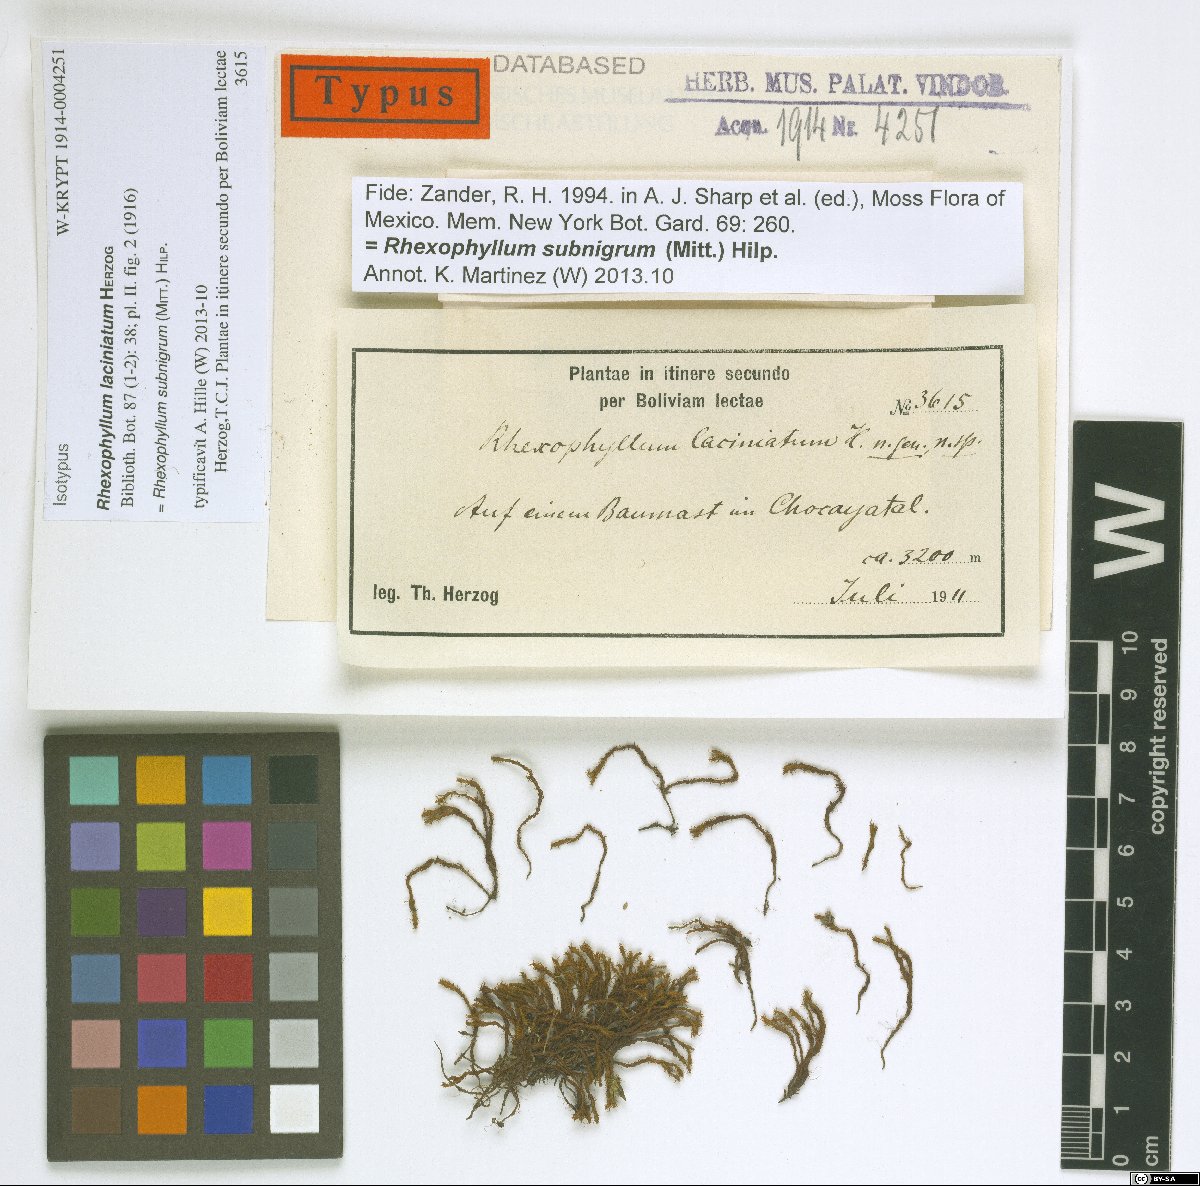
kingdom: Plantae
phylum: Bryophyta
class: Bryopsida
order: Pottiales
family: Pottiaceae
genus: Rhexophyllum
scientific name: Rhexophyllum subnigrum
